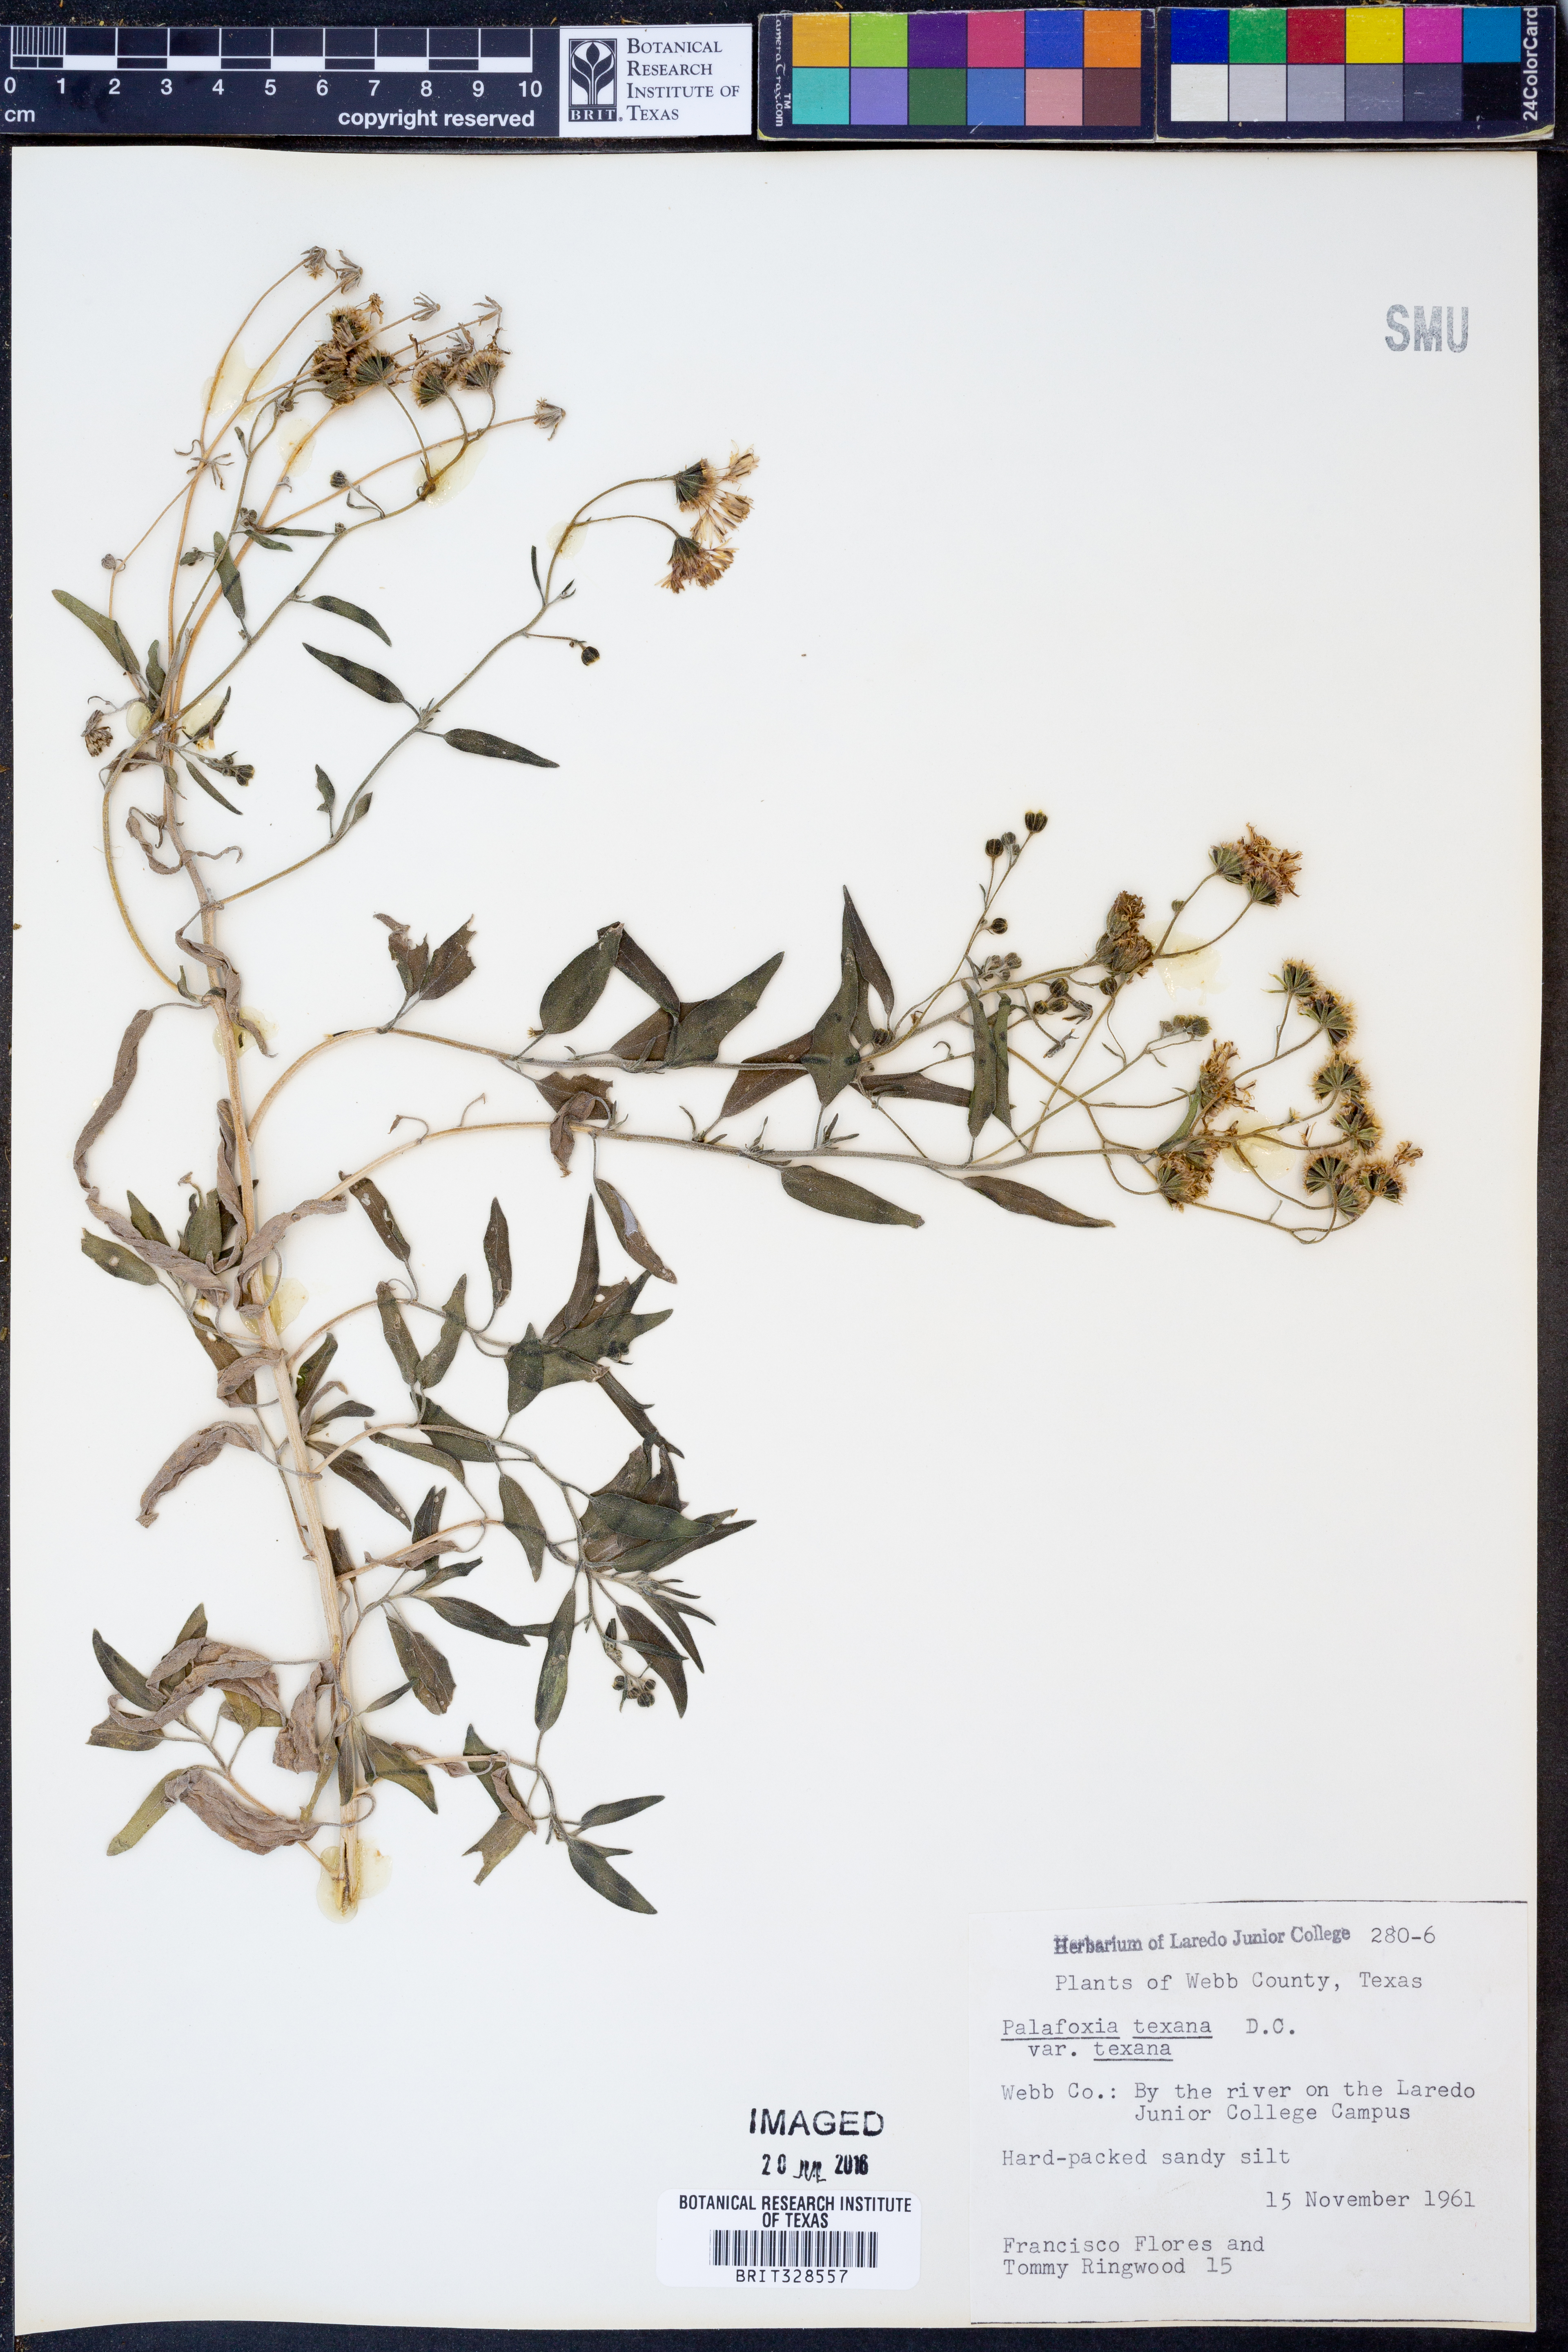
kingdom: Plantae
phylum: Tracheophyta
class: Magnoliopsida
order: Asterales
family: Asteraceae
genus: Palafoxia
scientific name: Palafoxia texana
